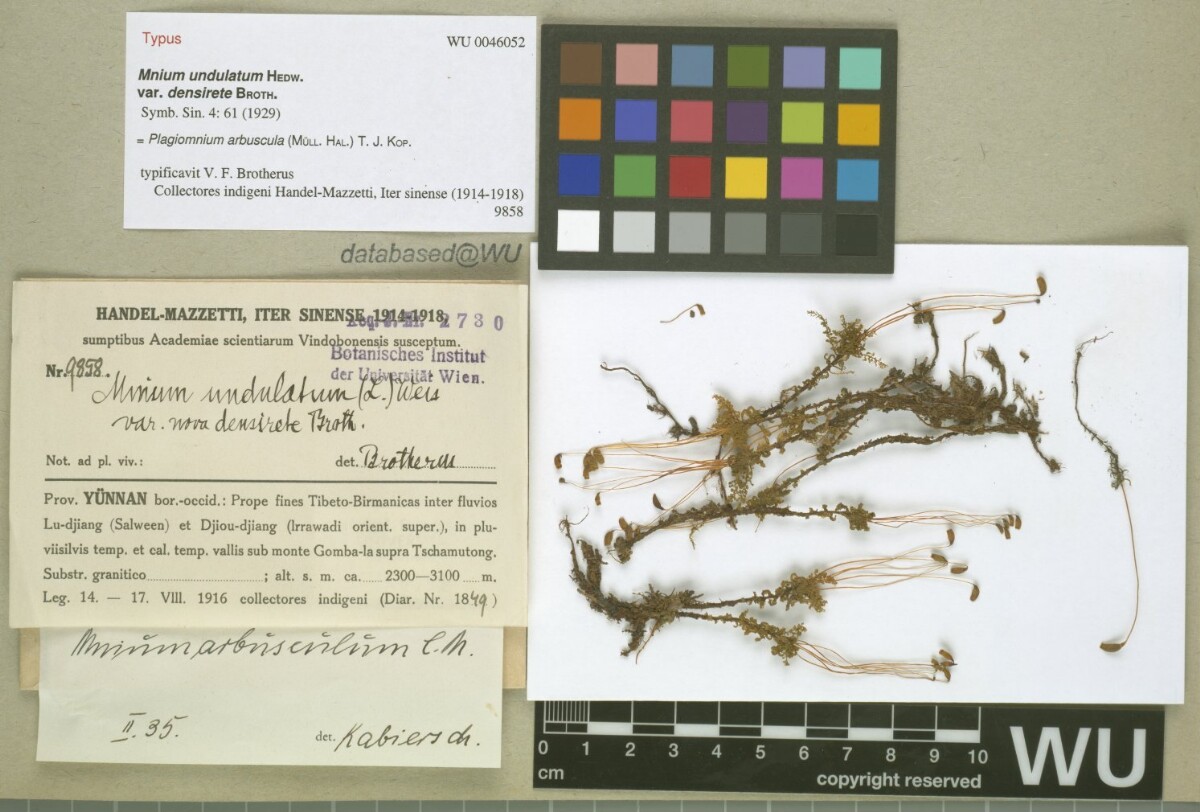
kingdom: Plantae
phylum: Bryophyta
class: Bryopsida
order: Bryales
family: Mniaceae
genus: Plagiomnium
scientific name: Plagiomnium arbuscula
